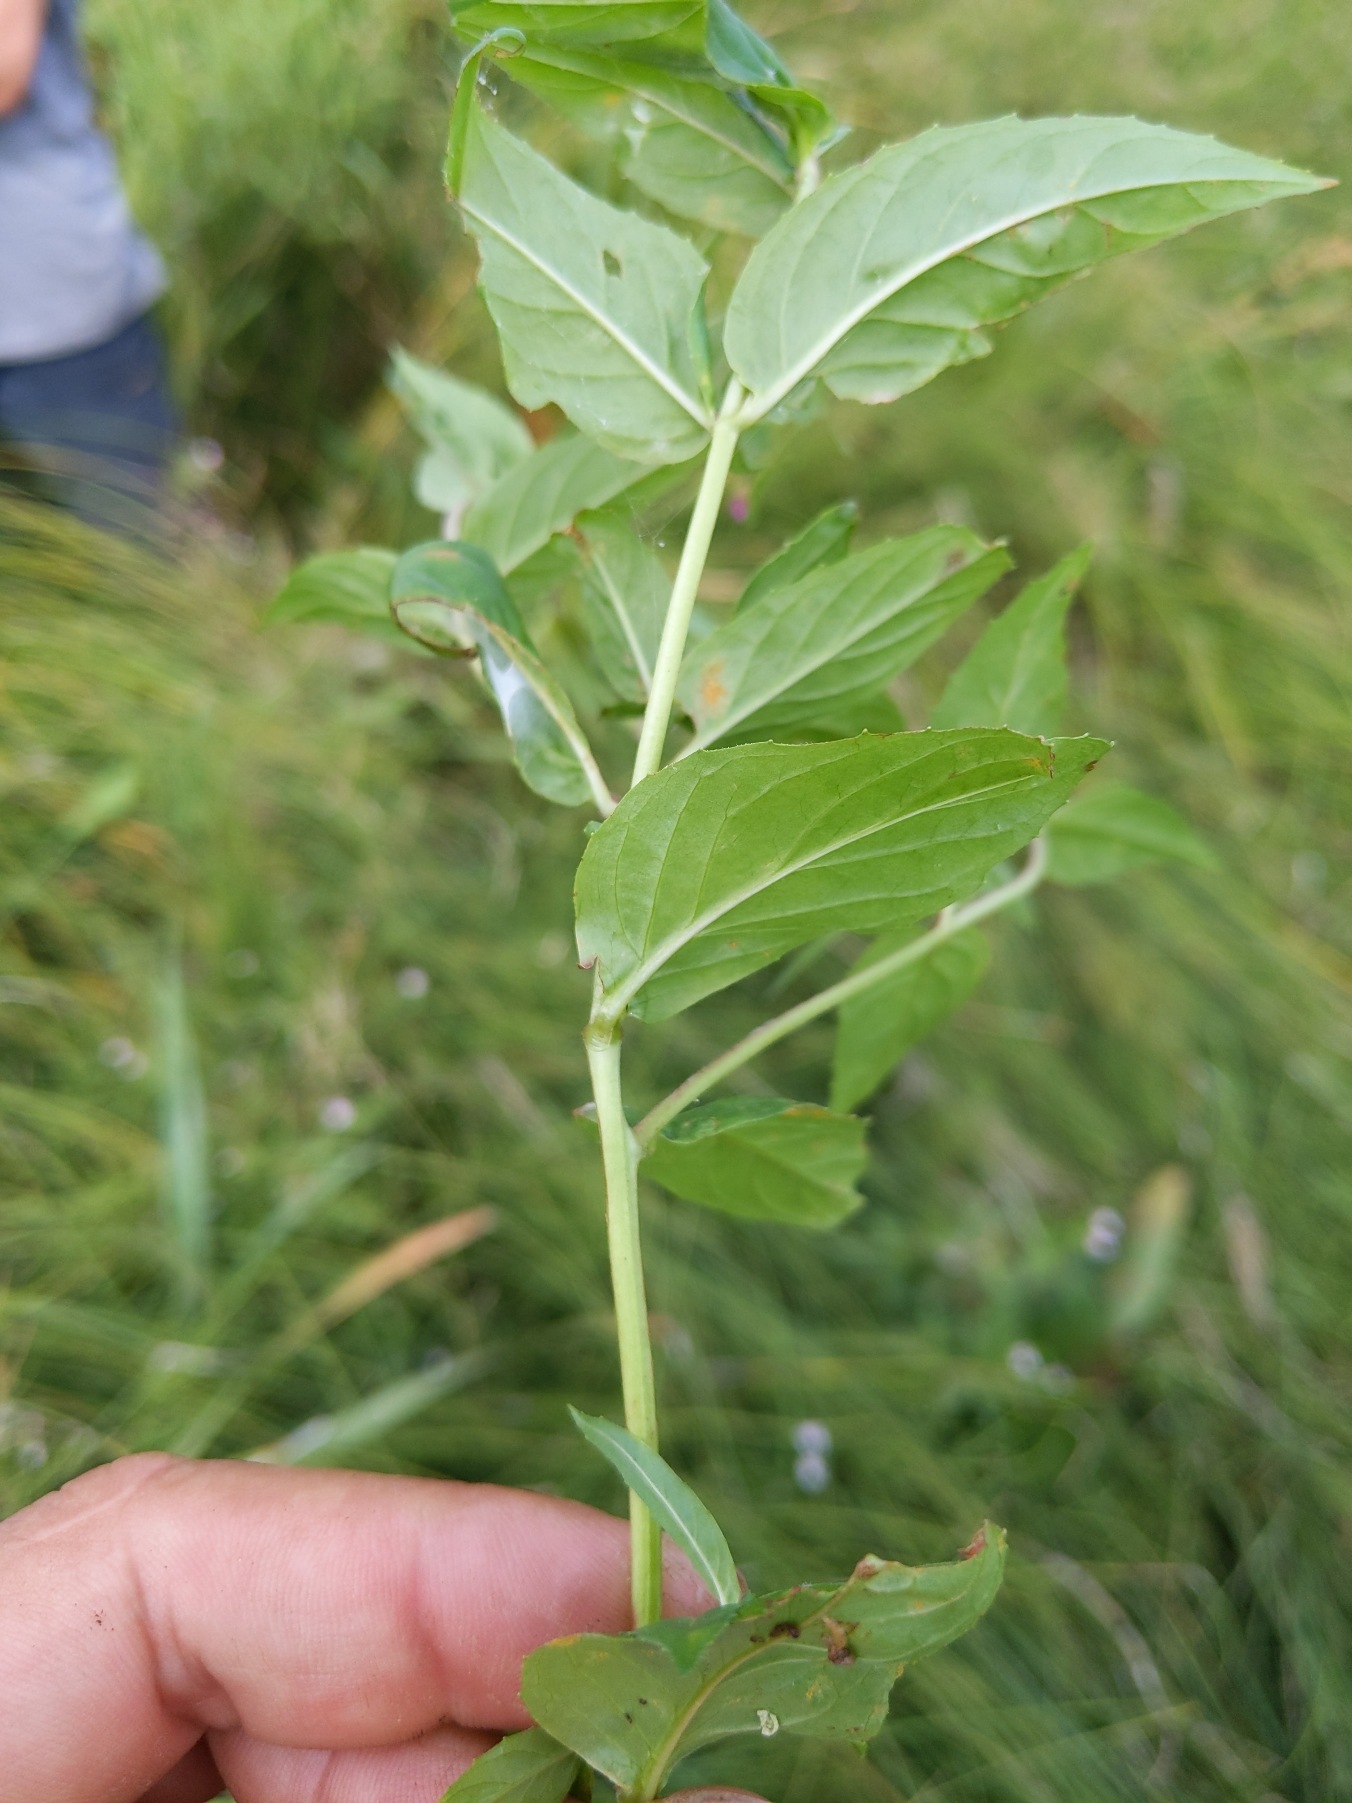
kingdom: Plantae
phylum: Tracheophyta
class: Magnoliopsida
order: Myrtales
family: Onagraceae
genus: Epilobium
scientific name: Epilobium ciliatum
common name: Kirtlet dueurt
